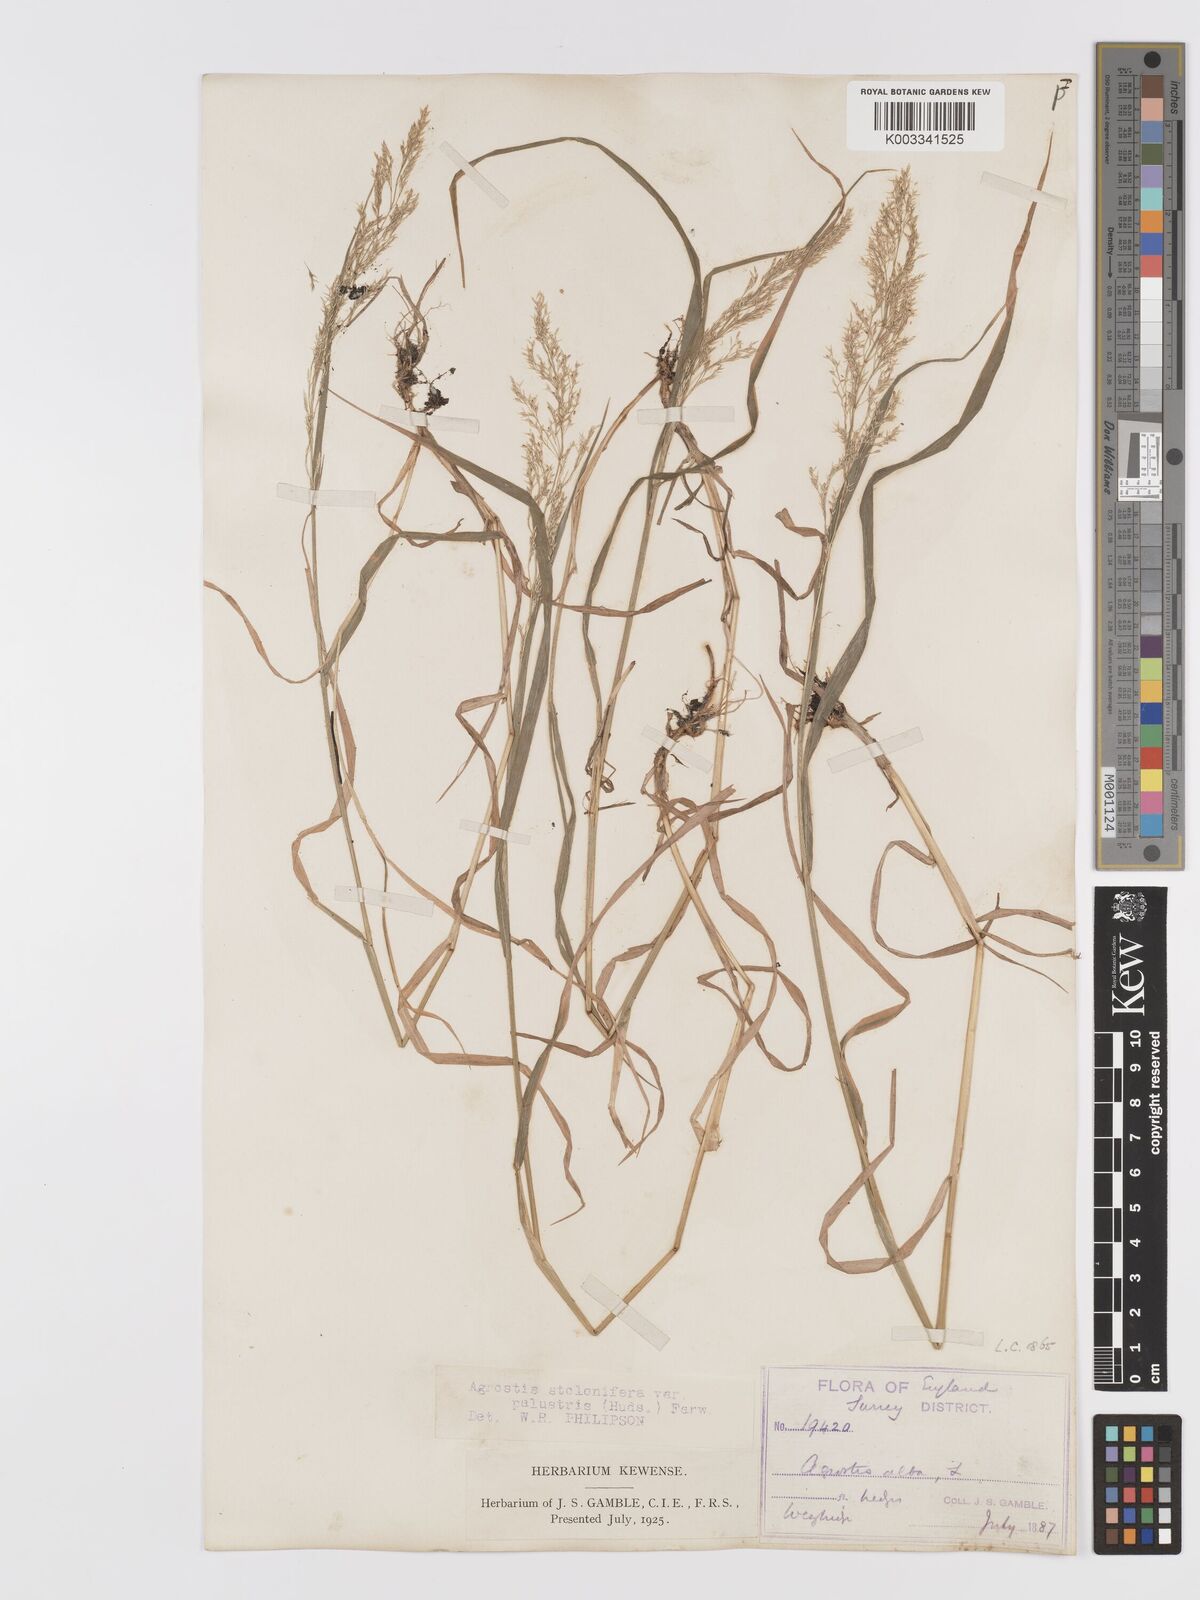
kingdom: Plantae
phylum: Tracheophyta
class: Liliopsida
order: Poales
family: Poaceae
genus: Agrostis
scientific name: Agrostis stolonifera
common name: Creeping bentgrass
